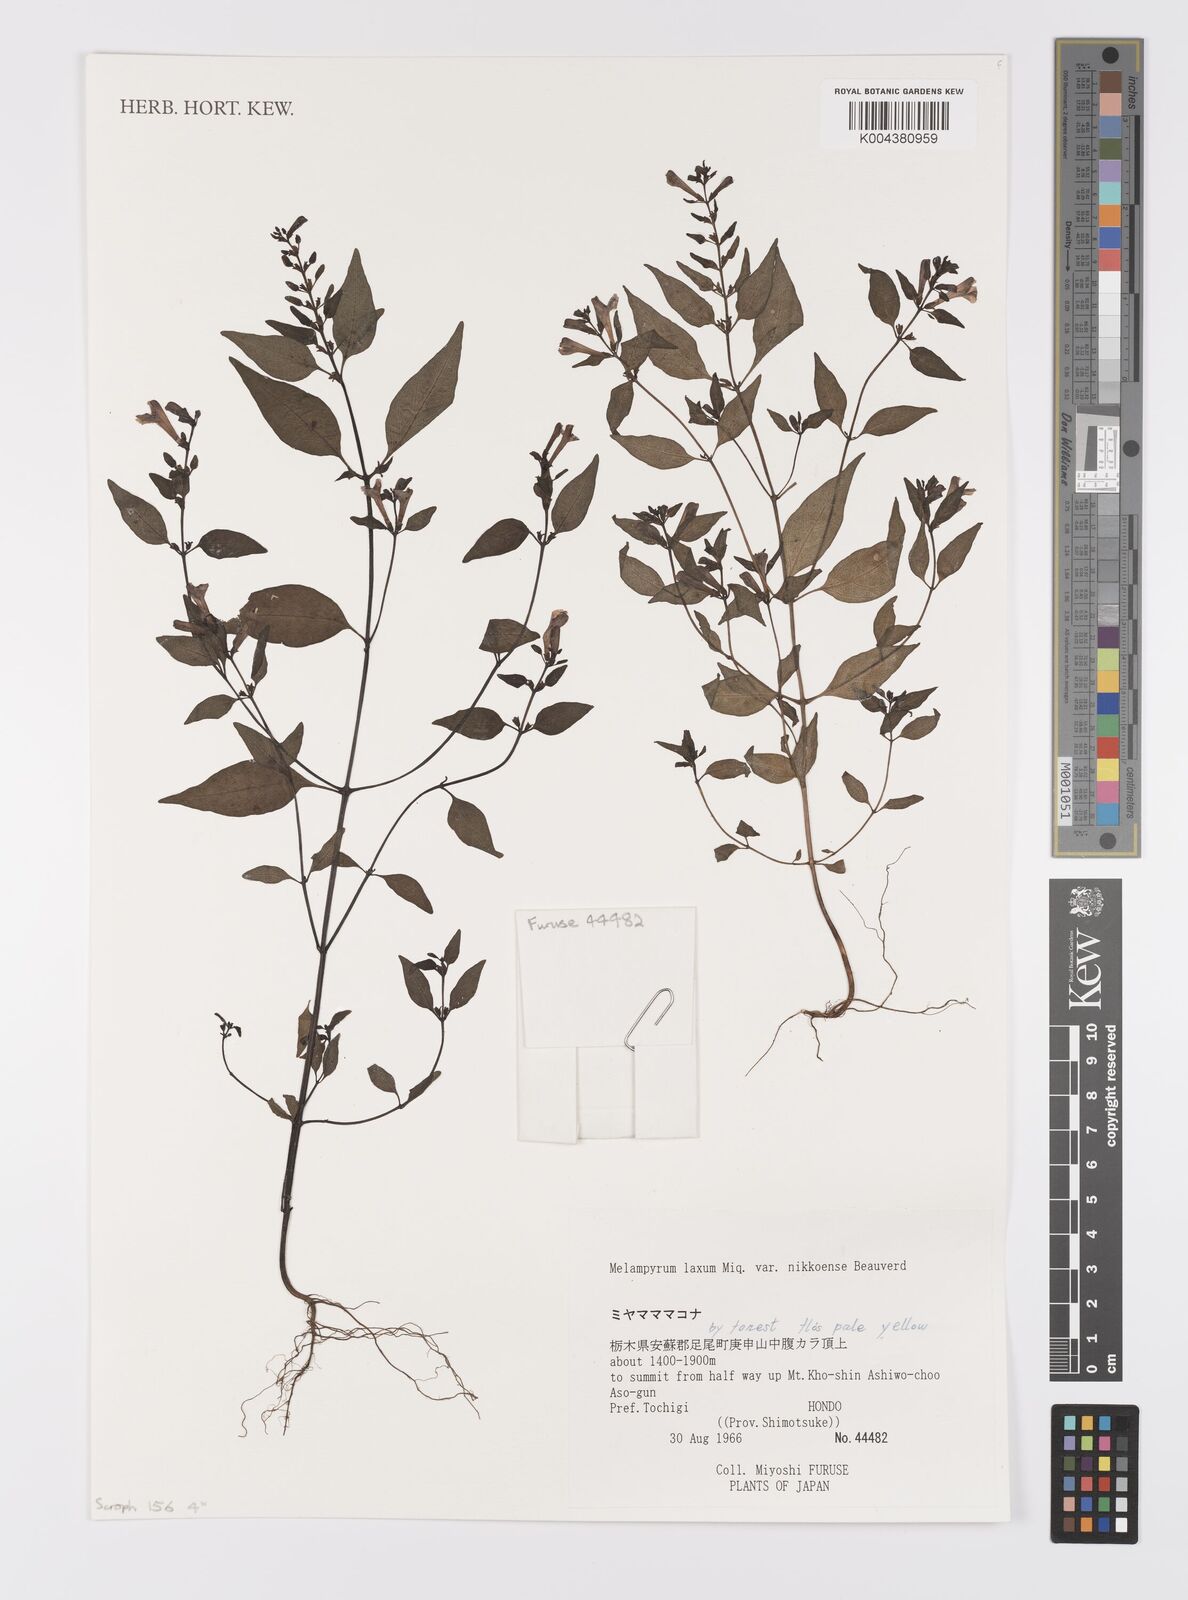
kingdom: Plantae
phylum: Tracheophyta
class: Magnoliopsida
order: Lamiales
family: Orobanchaceae
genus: Melampyrum
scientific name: Melampyrum laxum
